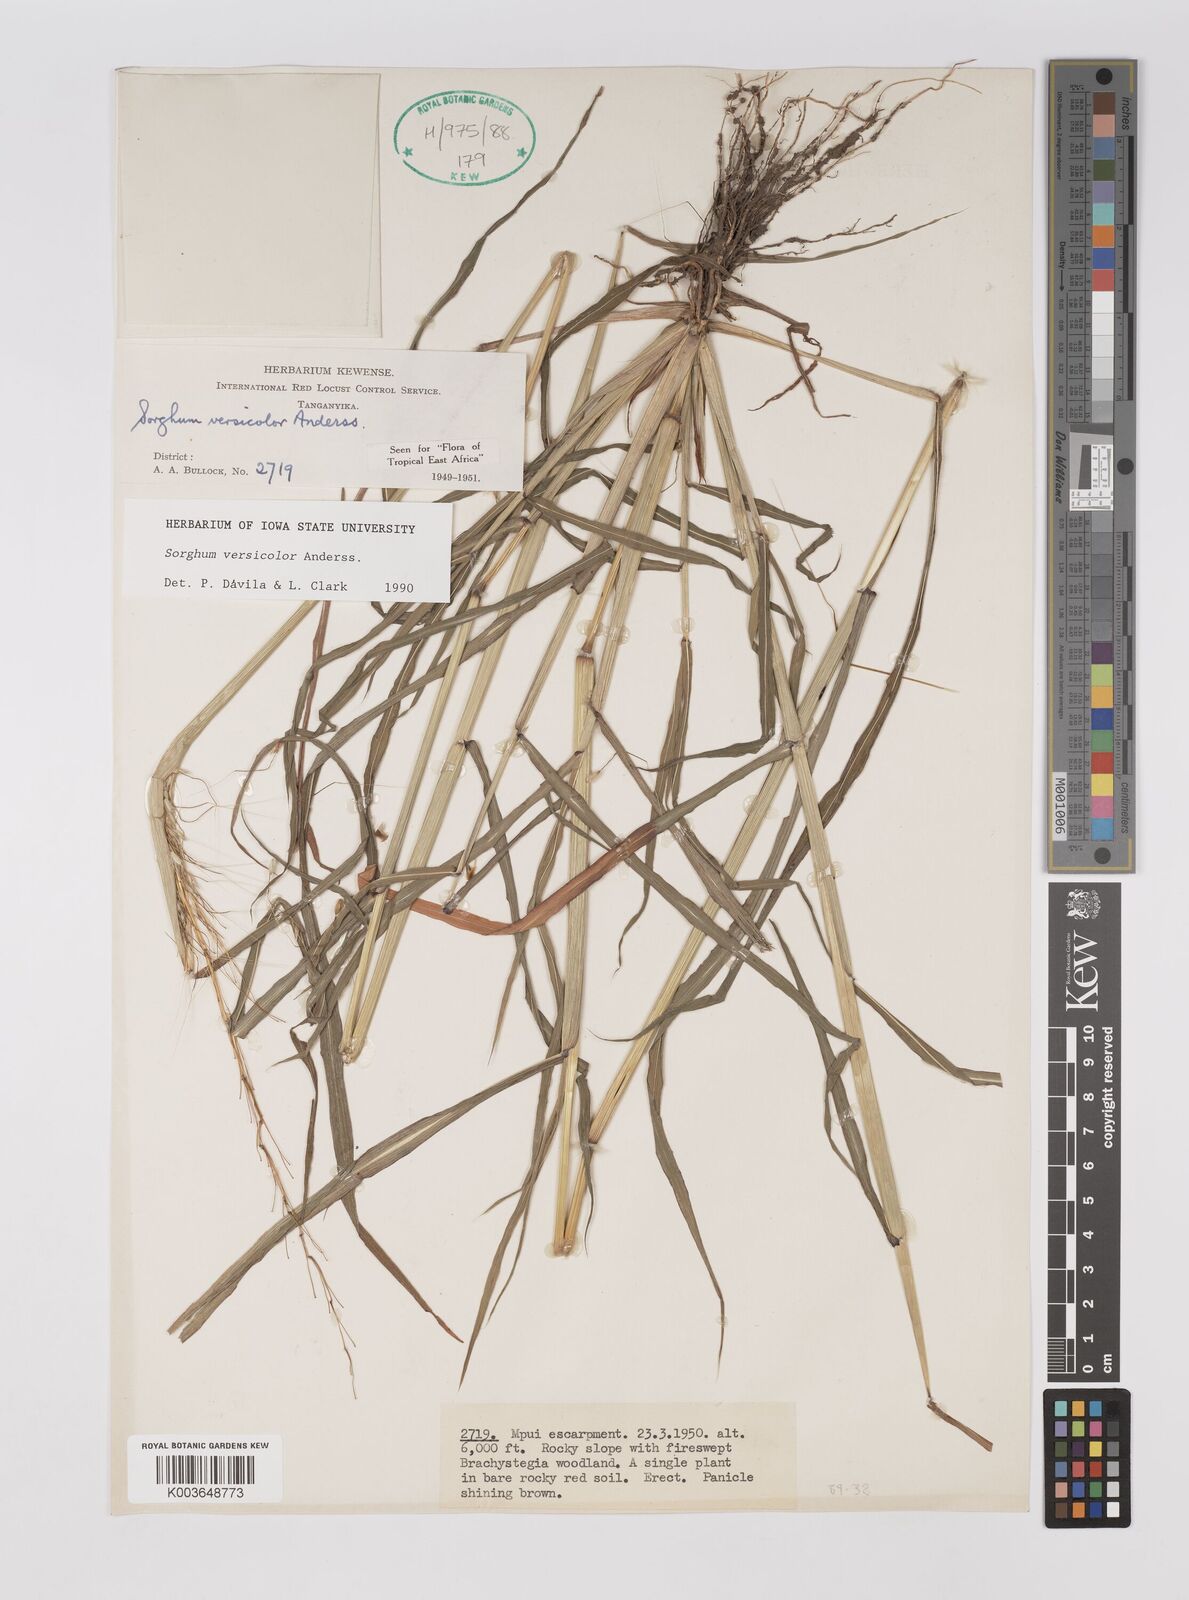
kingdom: Plantae
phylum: Tracheophyta
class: Liliopsida
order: Poales
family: Poaceae
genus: Sarga
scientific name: Sarga versicolor
